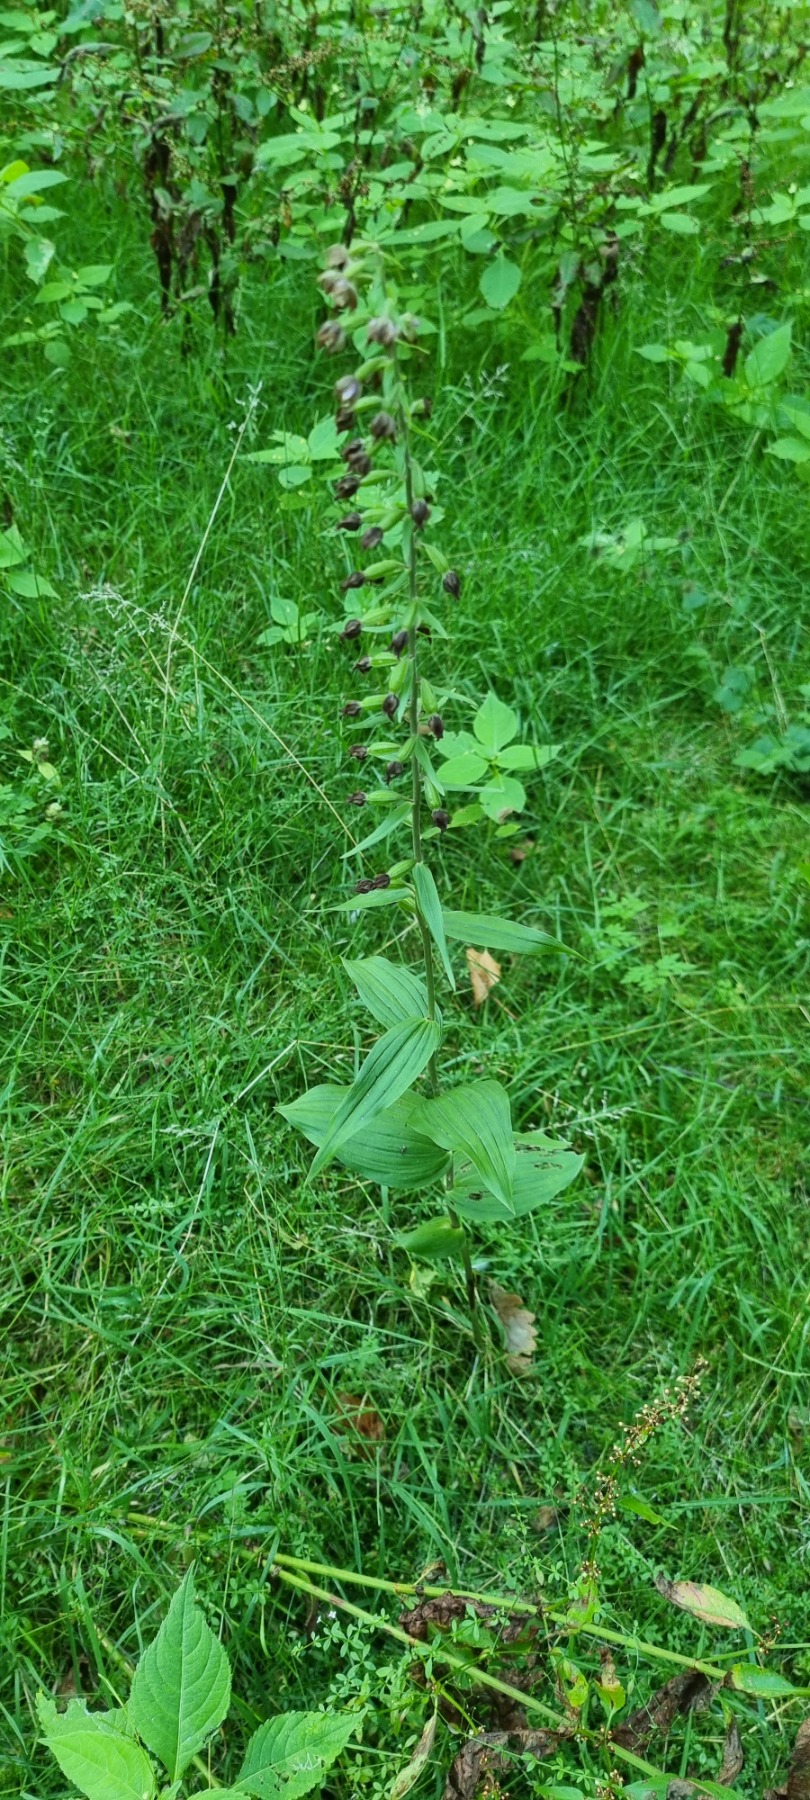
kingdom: Plantae
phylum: Tracheophyta
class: Liliopsida
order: Asparagales
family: Orchidaceae
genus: Epipactis
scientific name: Epipactis helleborine
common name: Skov-hullæbe
